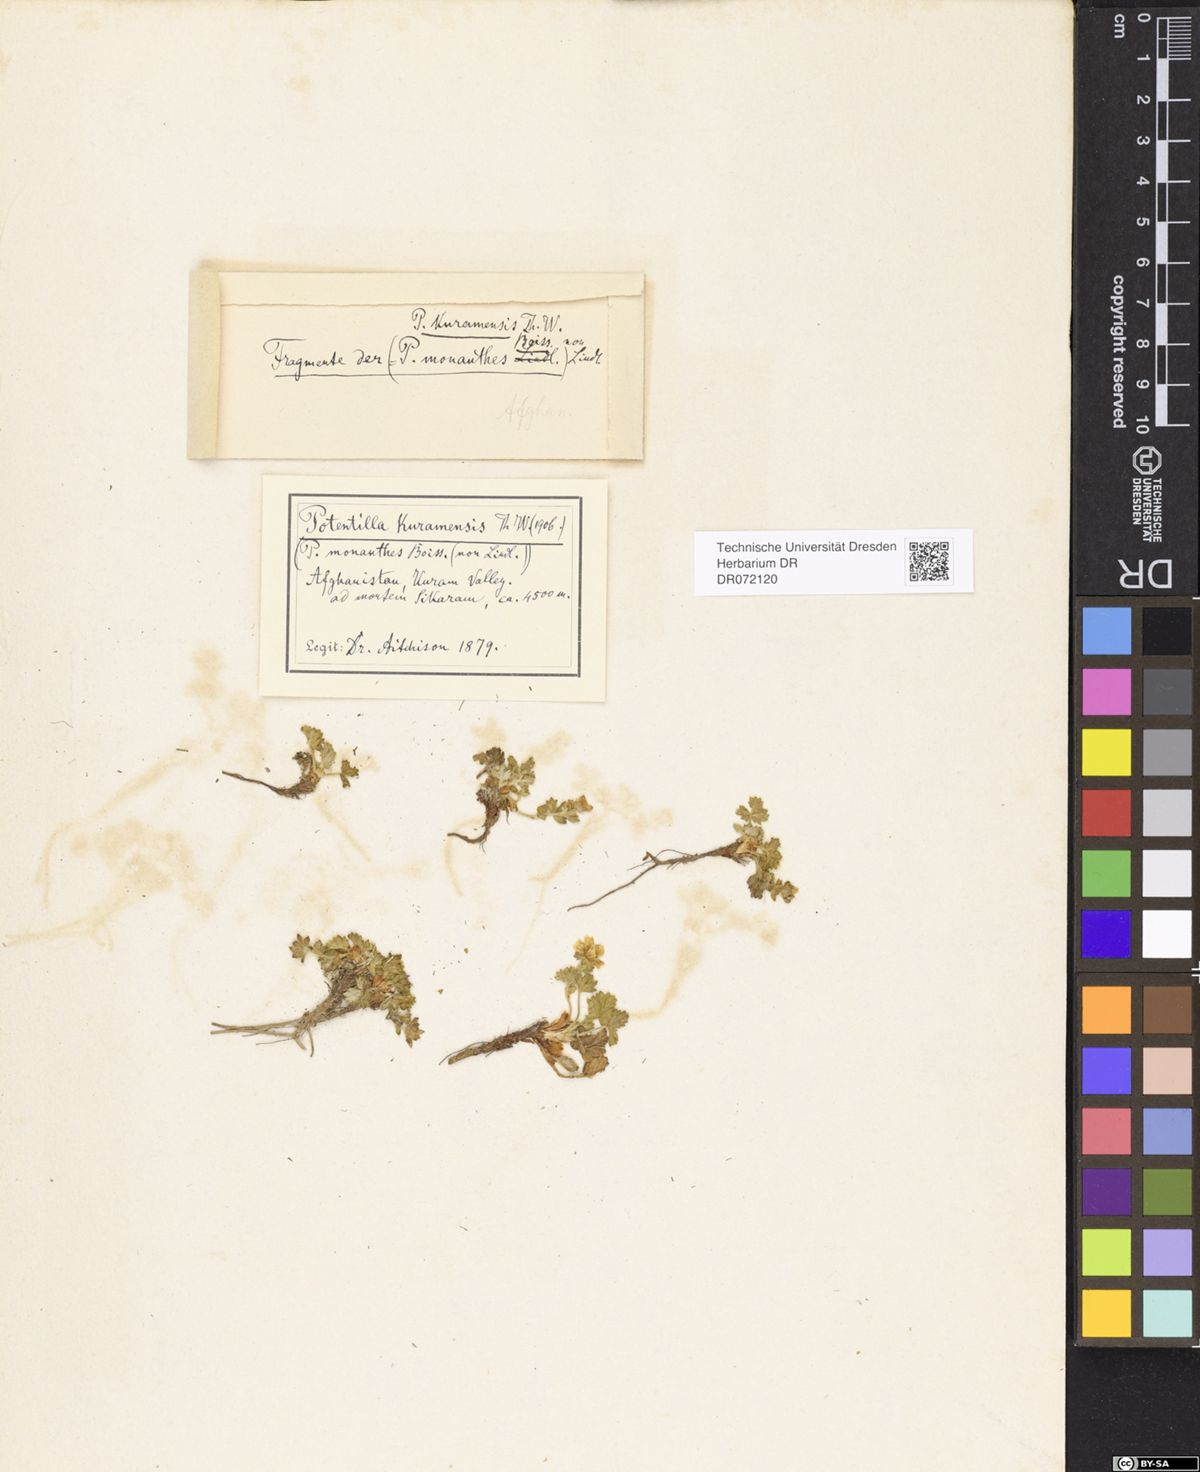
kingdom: Plantae
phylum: Tracheophyta
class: Magnoliopsida
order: Rosales
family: Rosaceae
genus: Potentilla
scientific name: Potentilla kurramensis
